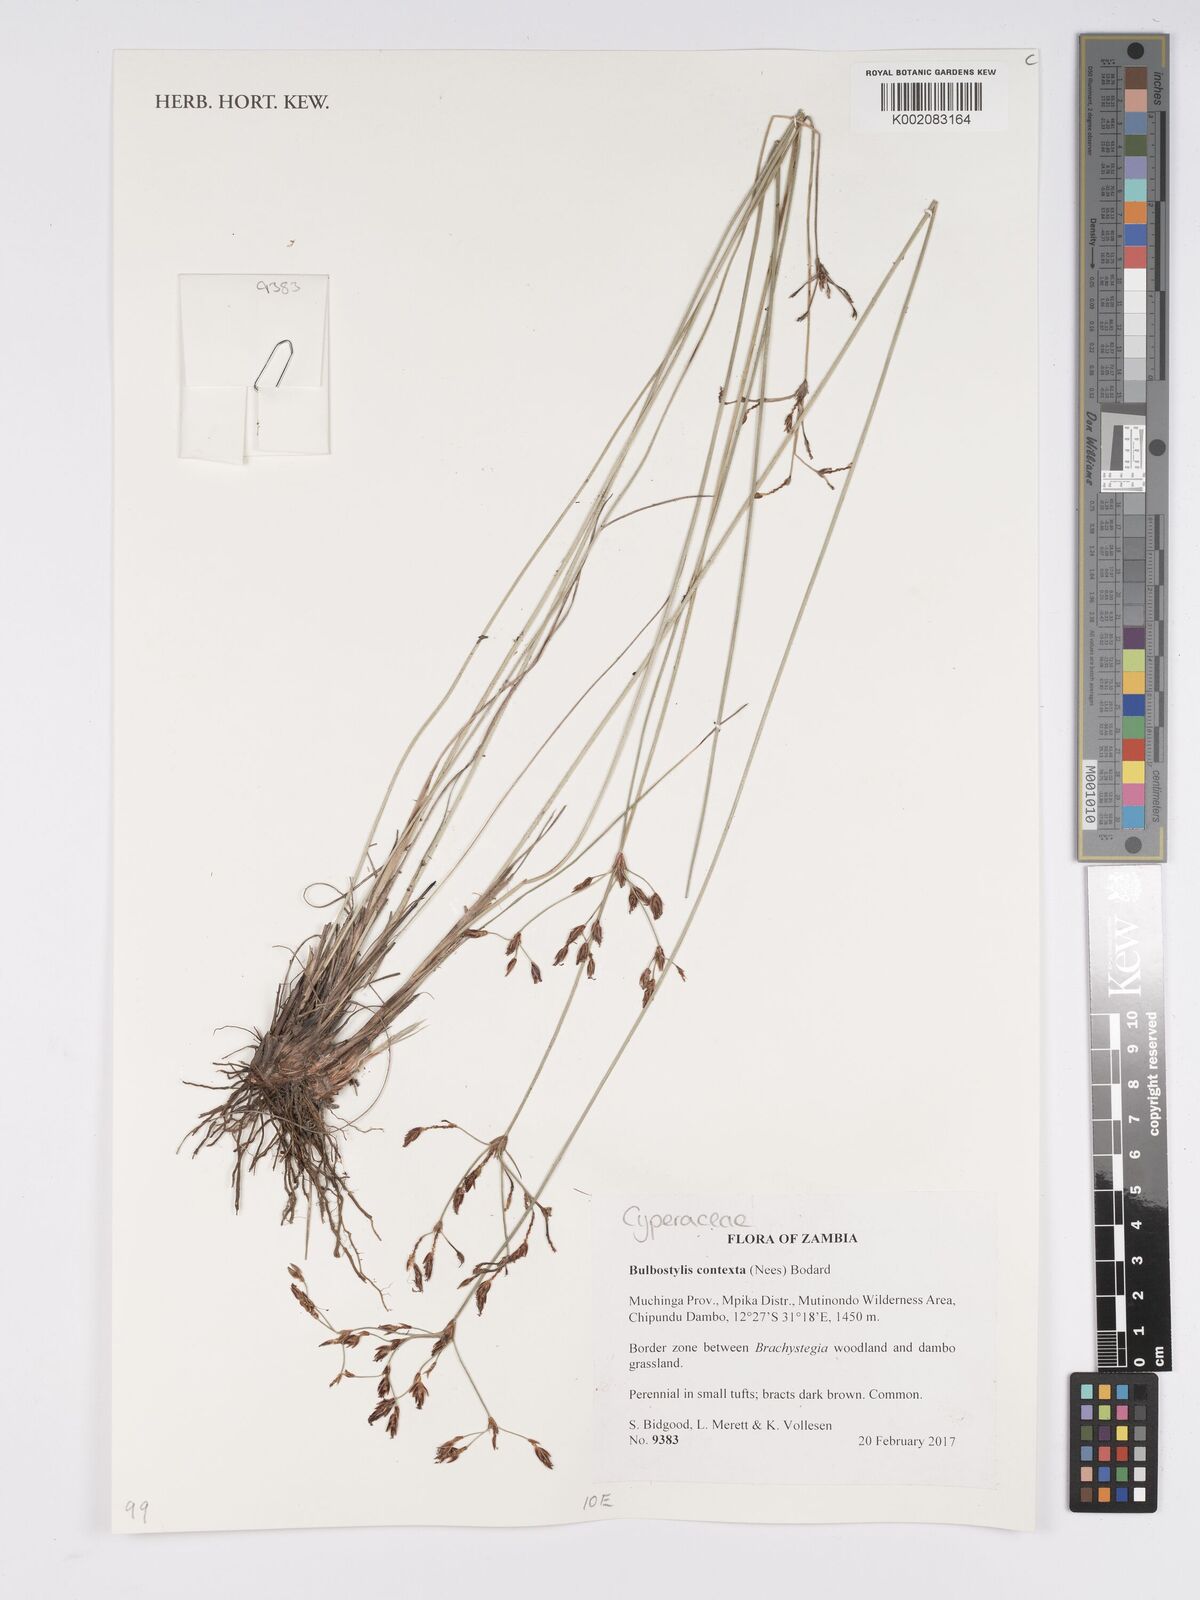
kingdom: Plantae
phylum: Tracheophyta
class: Liliopsida
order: Poales
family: Cyperaceae
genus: Bulbostylis
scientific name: Bulbostylis contexta
